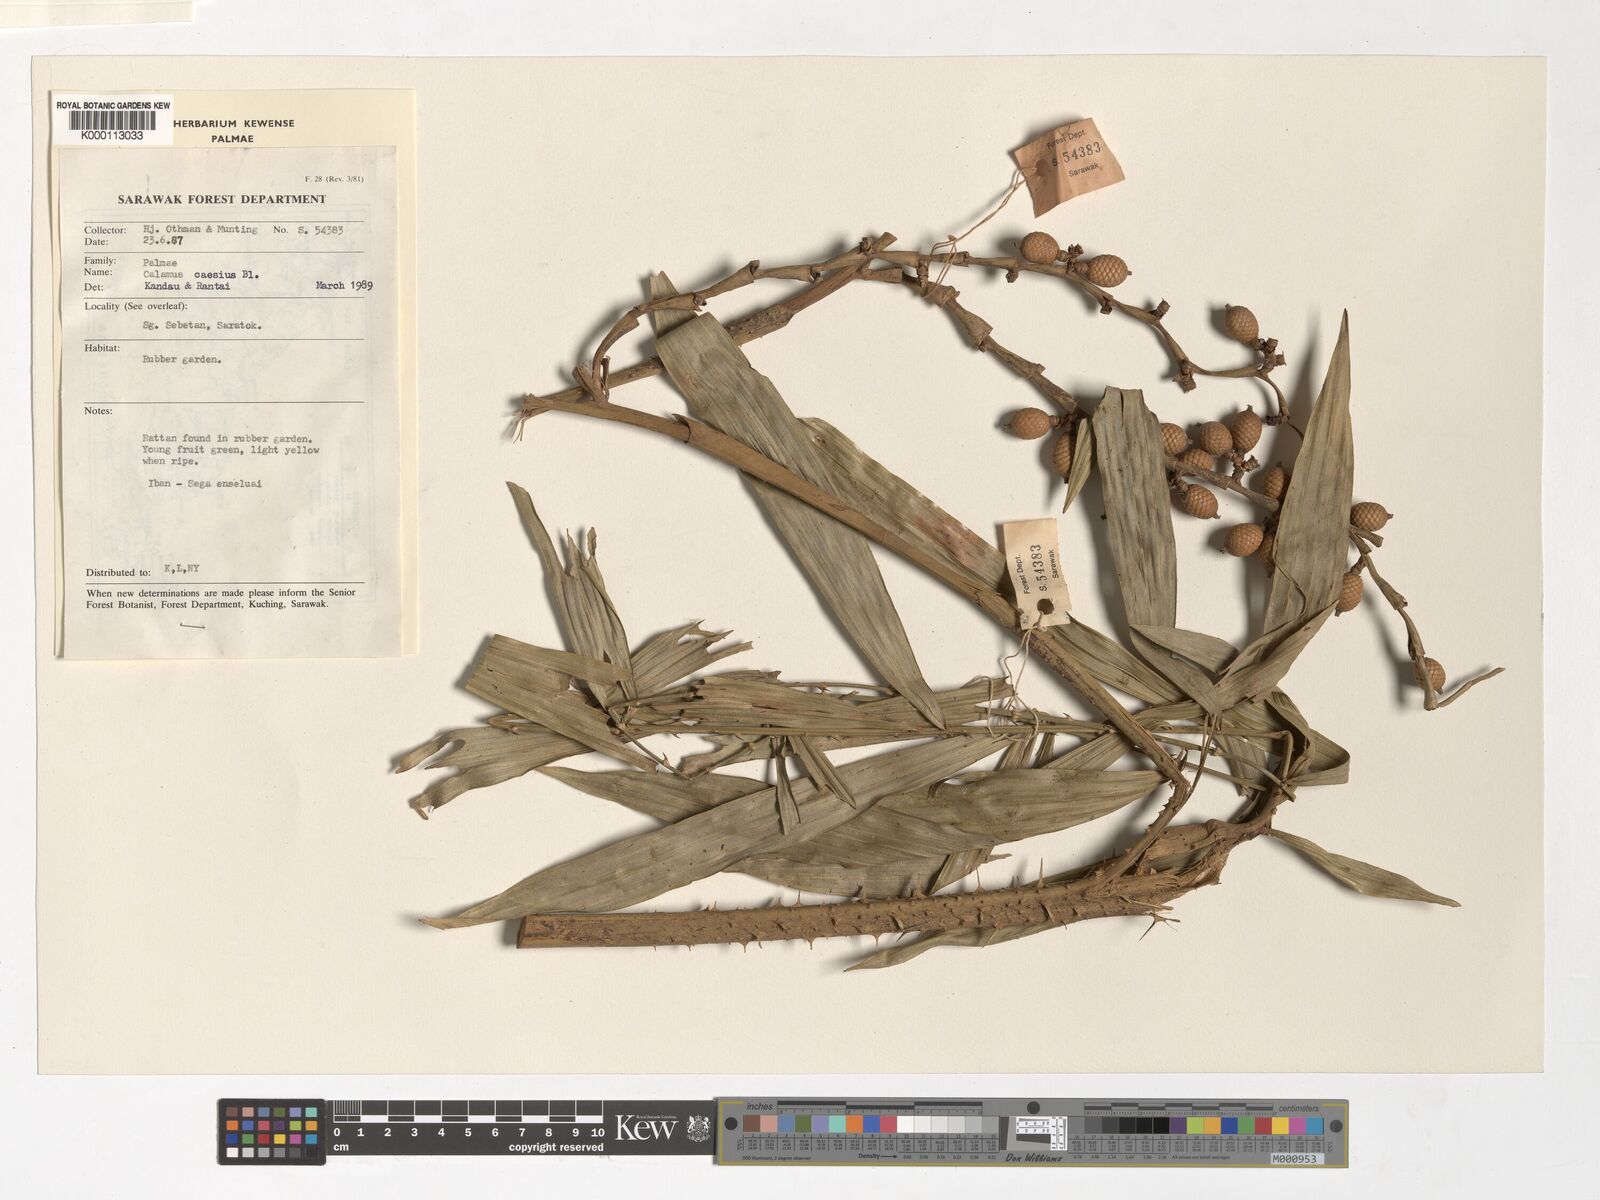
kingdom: Plantae
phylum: Tracheophyta
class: Liliopsida
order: Arecales
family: Arecaceae
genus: Calamus
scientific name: Calamus caesius
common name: Rattan palm
